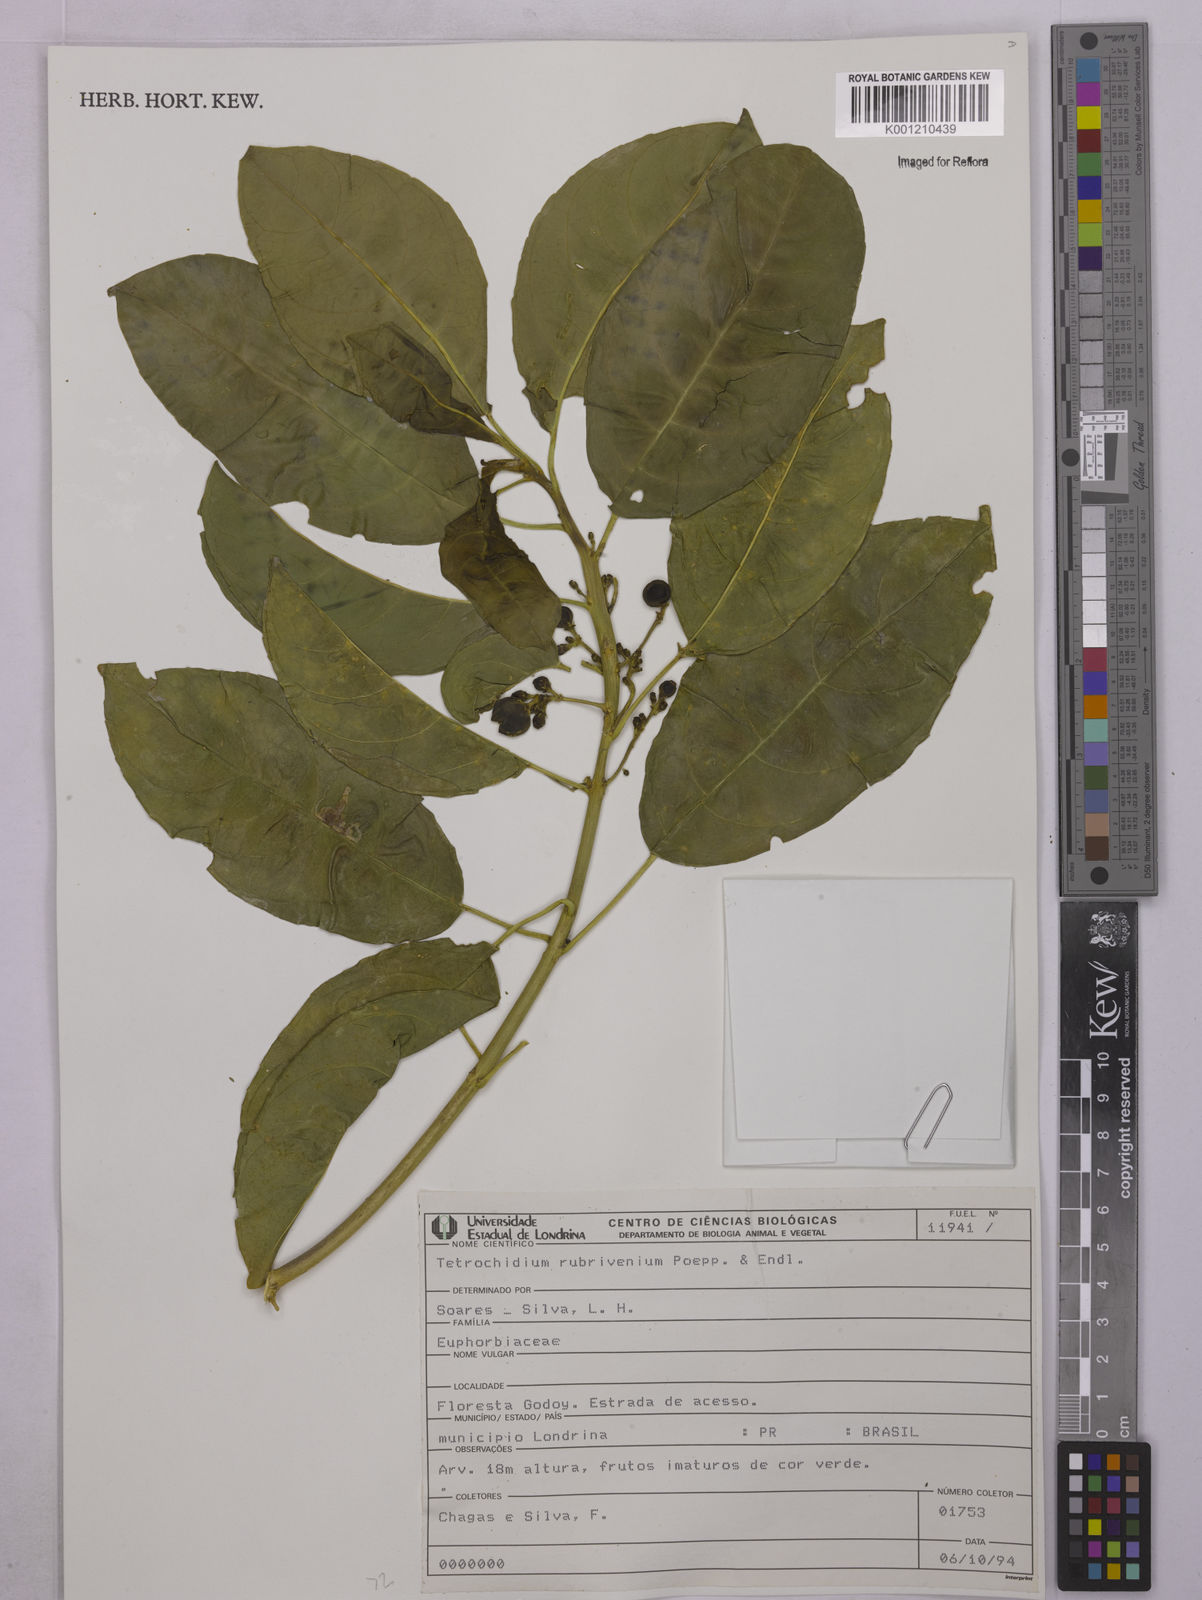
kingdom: Plantae
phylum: Tracheophyta
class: Magnoliopsida
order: Malpighiales
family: Euphorbiaceae
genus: Tetrorchidium
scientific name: Tetrorchidium rubrivenium
